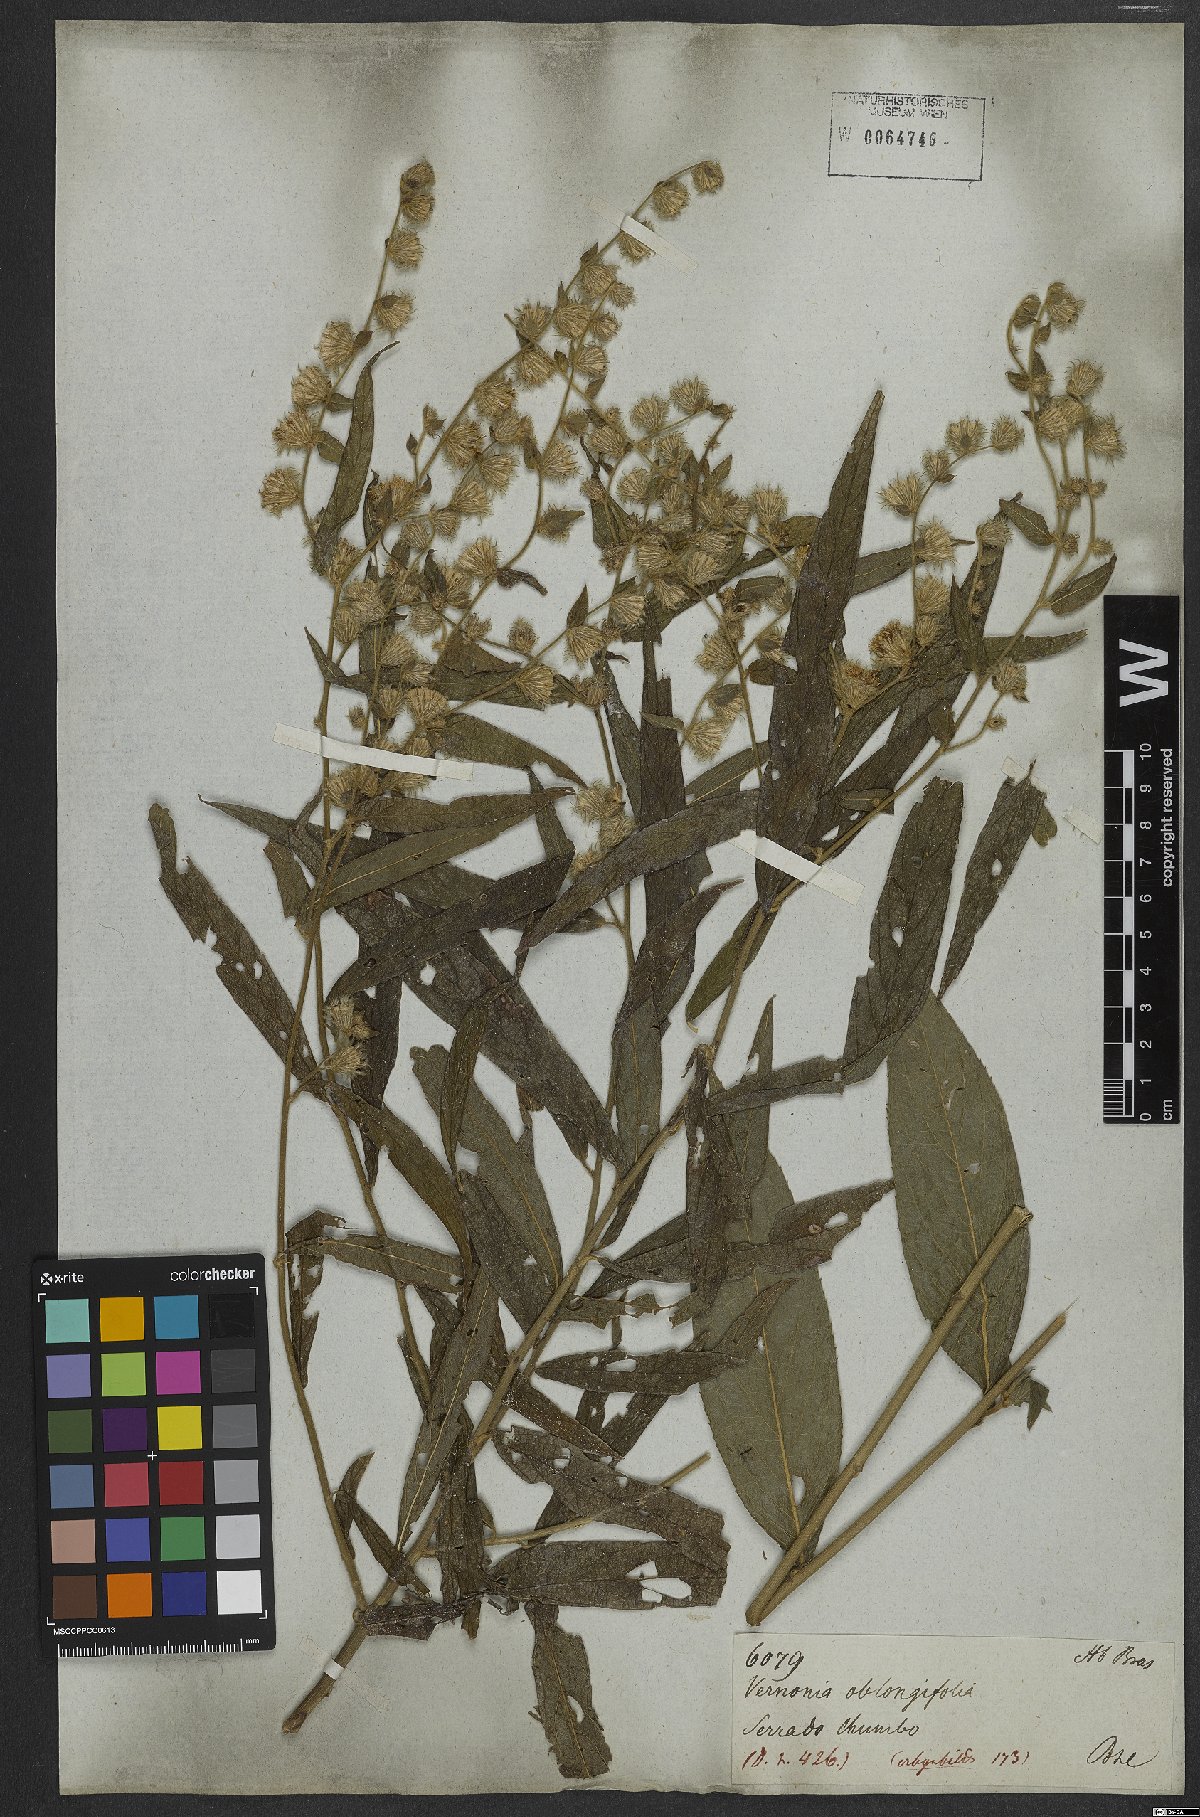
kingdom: Plantae
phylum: Tracheophyta
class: Magnoliopsida
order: Asterales
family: Asteraceae
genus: Lepidaploa
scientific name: Lepidaploa eriolepis
